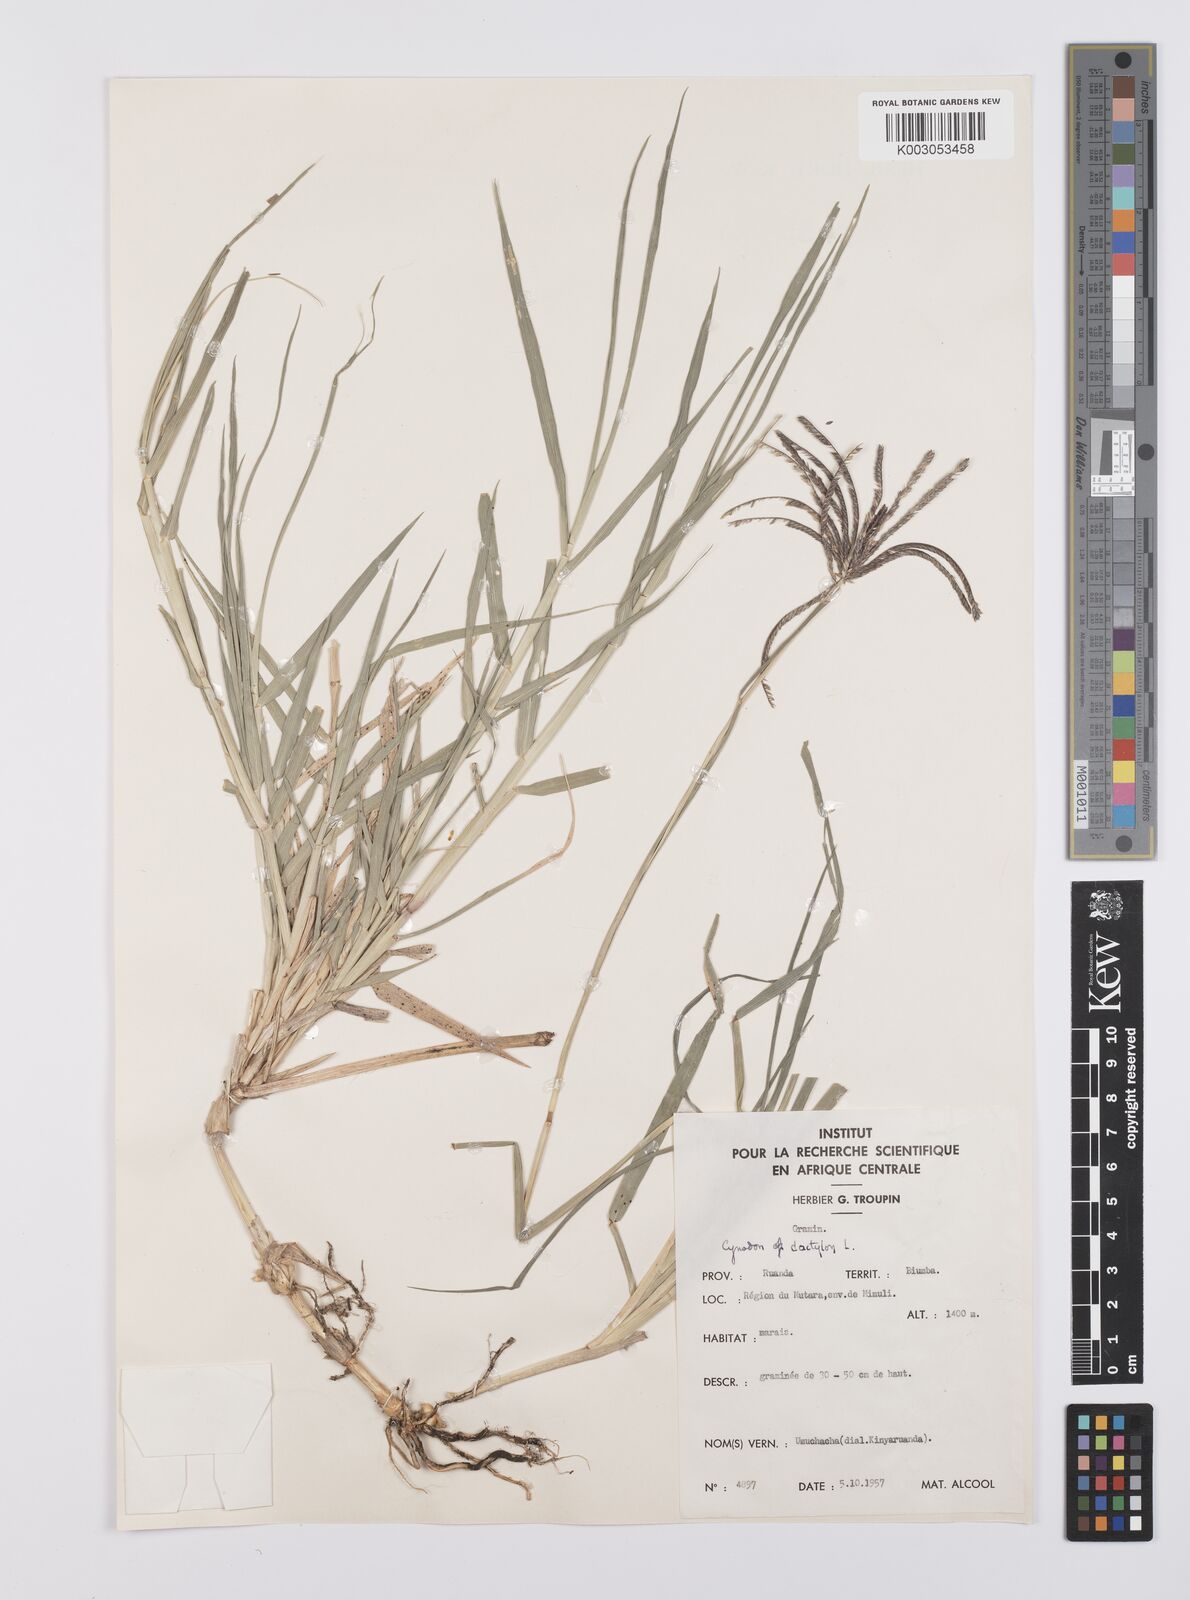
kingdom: Plantae
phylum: Tracheophyta
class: Liliopsida
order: Poales
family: Poaceae
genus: Cynodon
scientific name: Cynodon aethiopicus
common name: Ethiopian dogstooth grass
